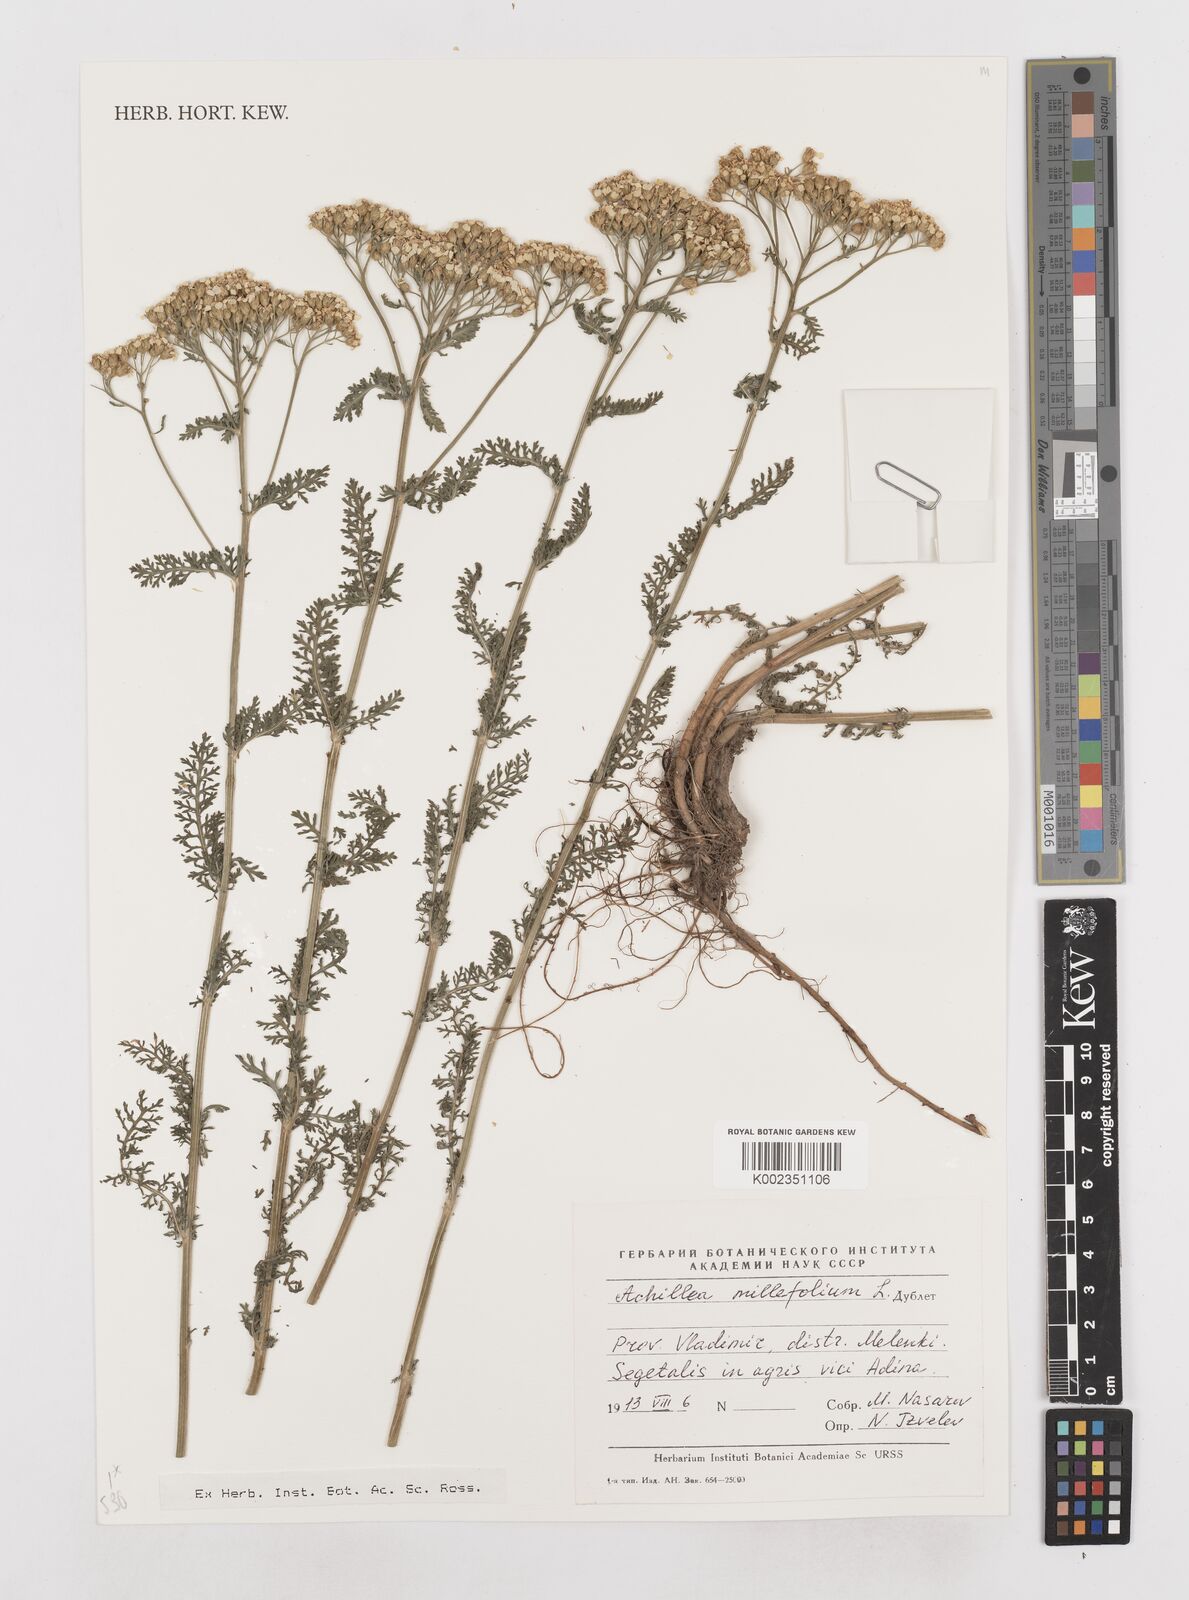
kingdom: Plantae
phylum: Tracheophyta
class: Magnoliopsida
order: Asterales
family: Asteraceae
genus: Achillea
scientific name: Achillea millefolium
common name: Yarrow
